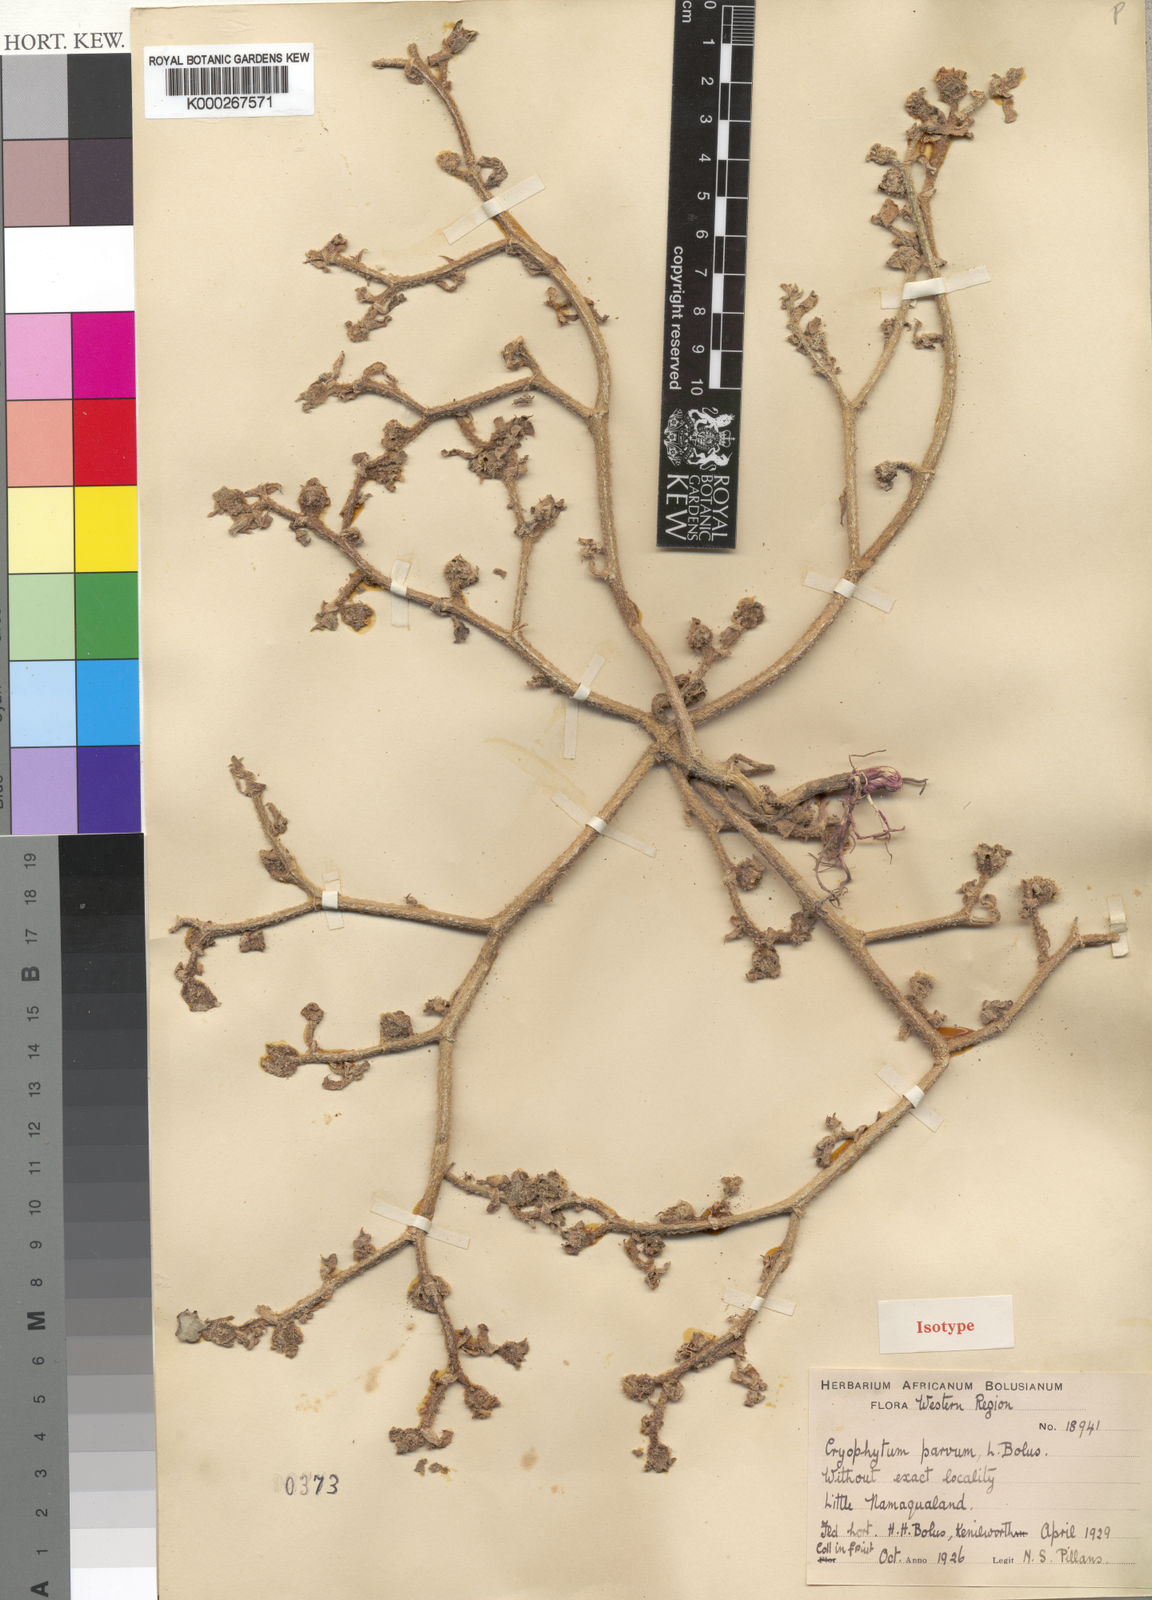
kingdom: Plantae
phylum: Tracheophyta
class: Magnoliopsida
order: Caryophyllales
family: Aizoaceae
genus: Mesembryanthemum
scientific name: Mesembryanthemum crystallinum
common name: Common iceplant
